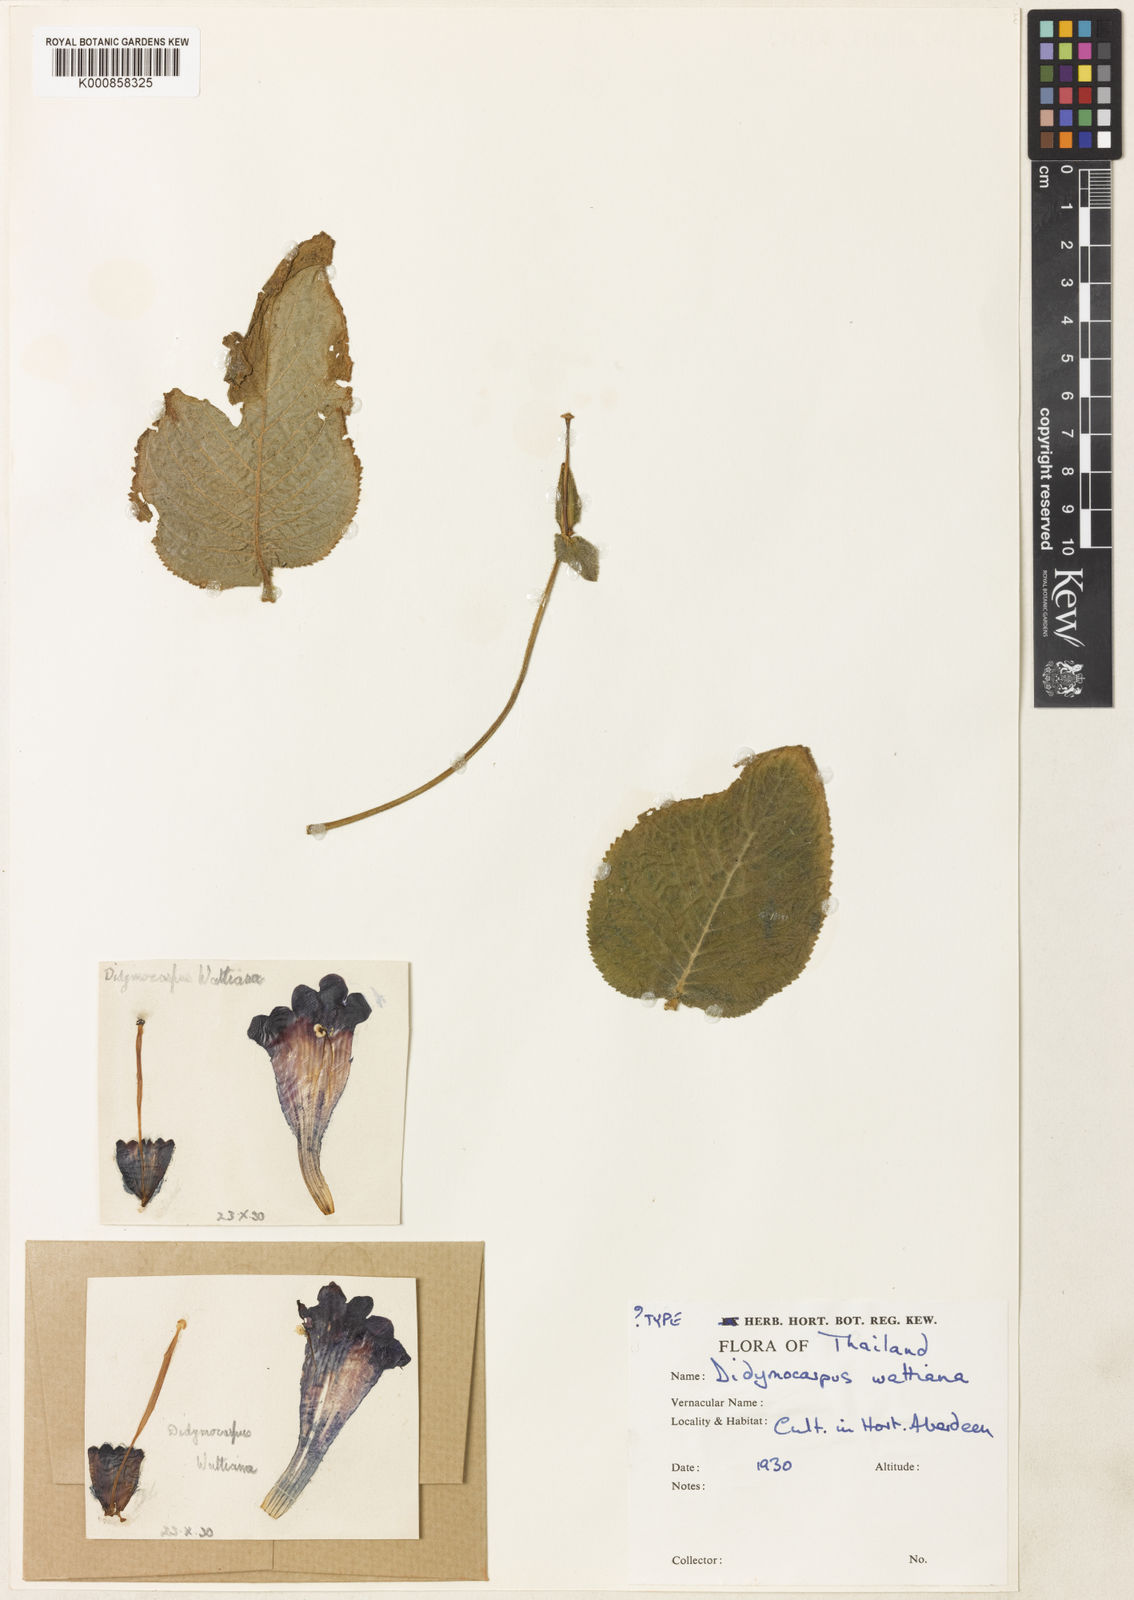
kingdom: Plantae
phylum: Tracheophyta
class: Magnoliopsida
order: Lamiales
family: Gesneriaceae
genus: Didymocarpus
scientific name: Didymocarpus wattianus
